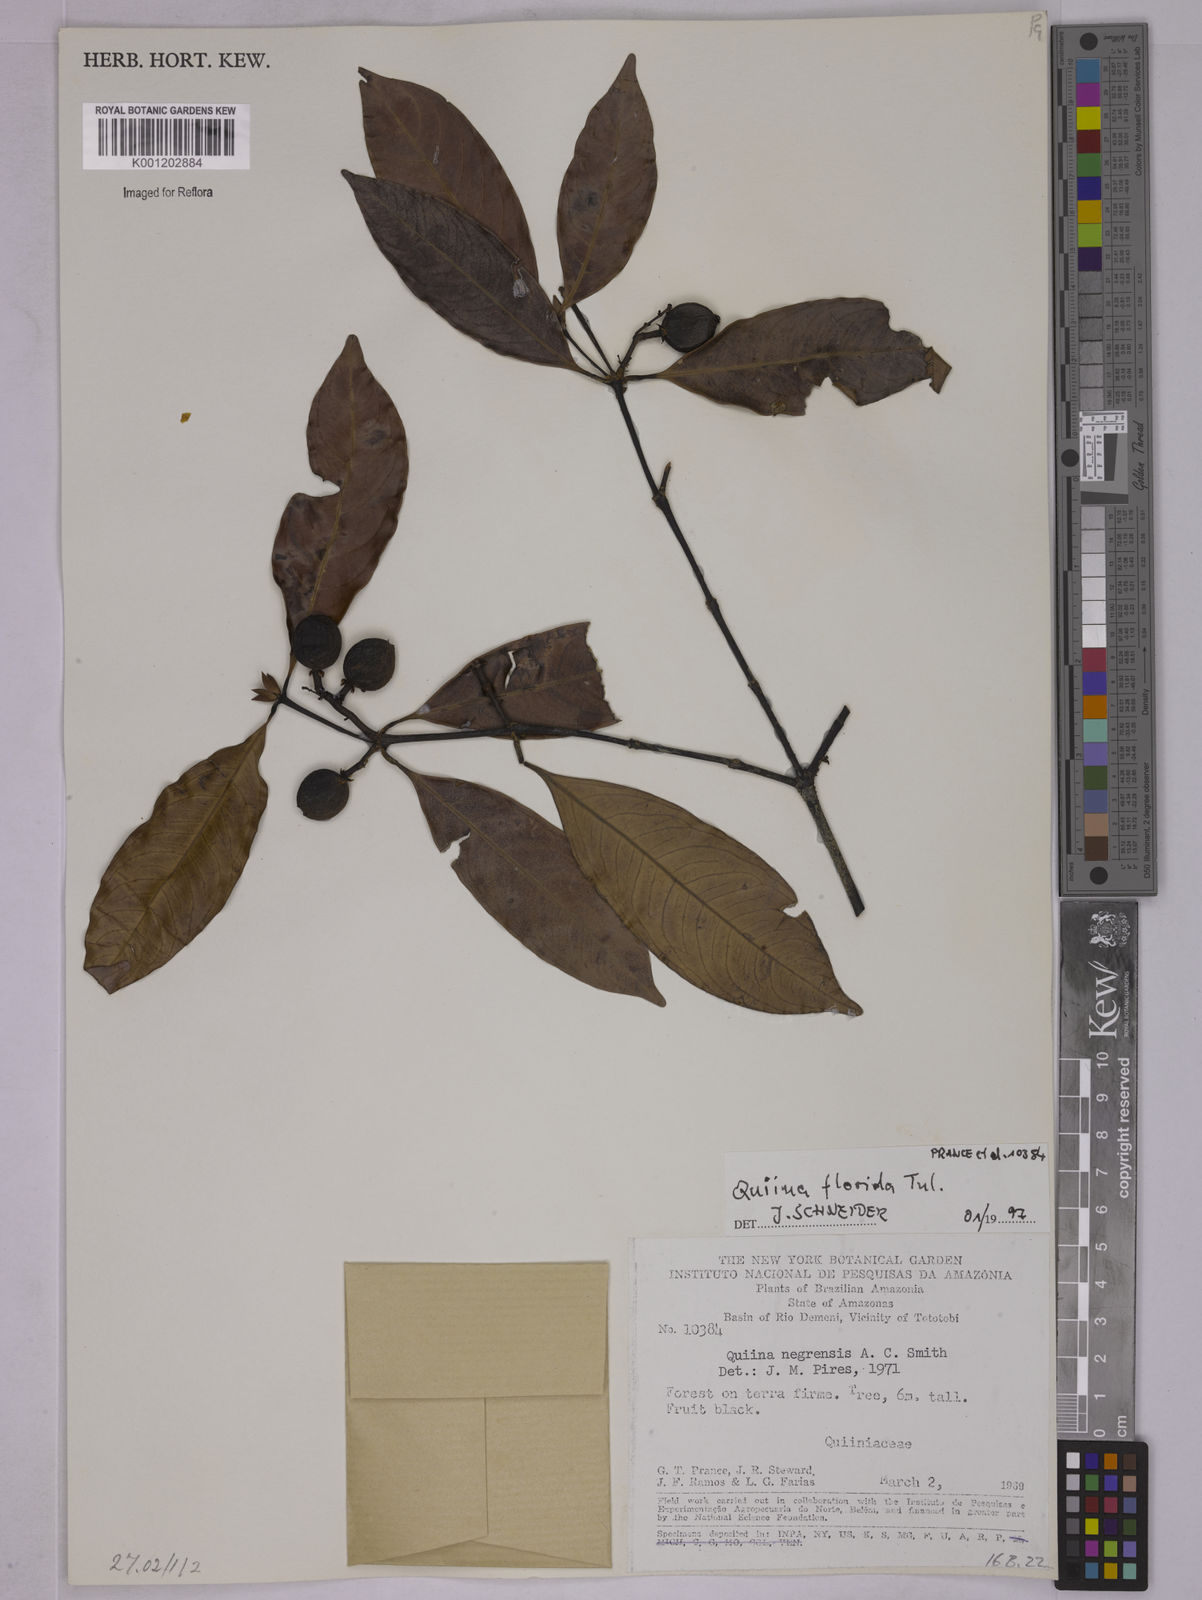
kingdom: Plantae
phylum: Tracheophyta
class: Magnoliopsida
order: Malpighiales
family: Quiinaceae
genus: Quiina
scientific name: Quiina florida
